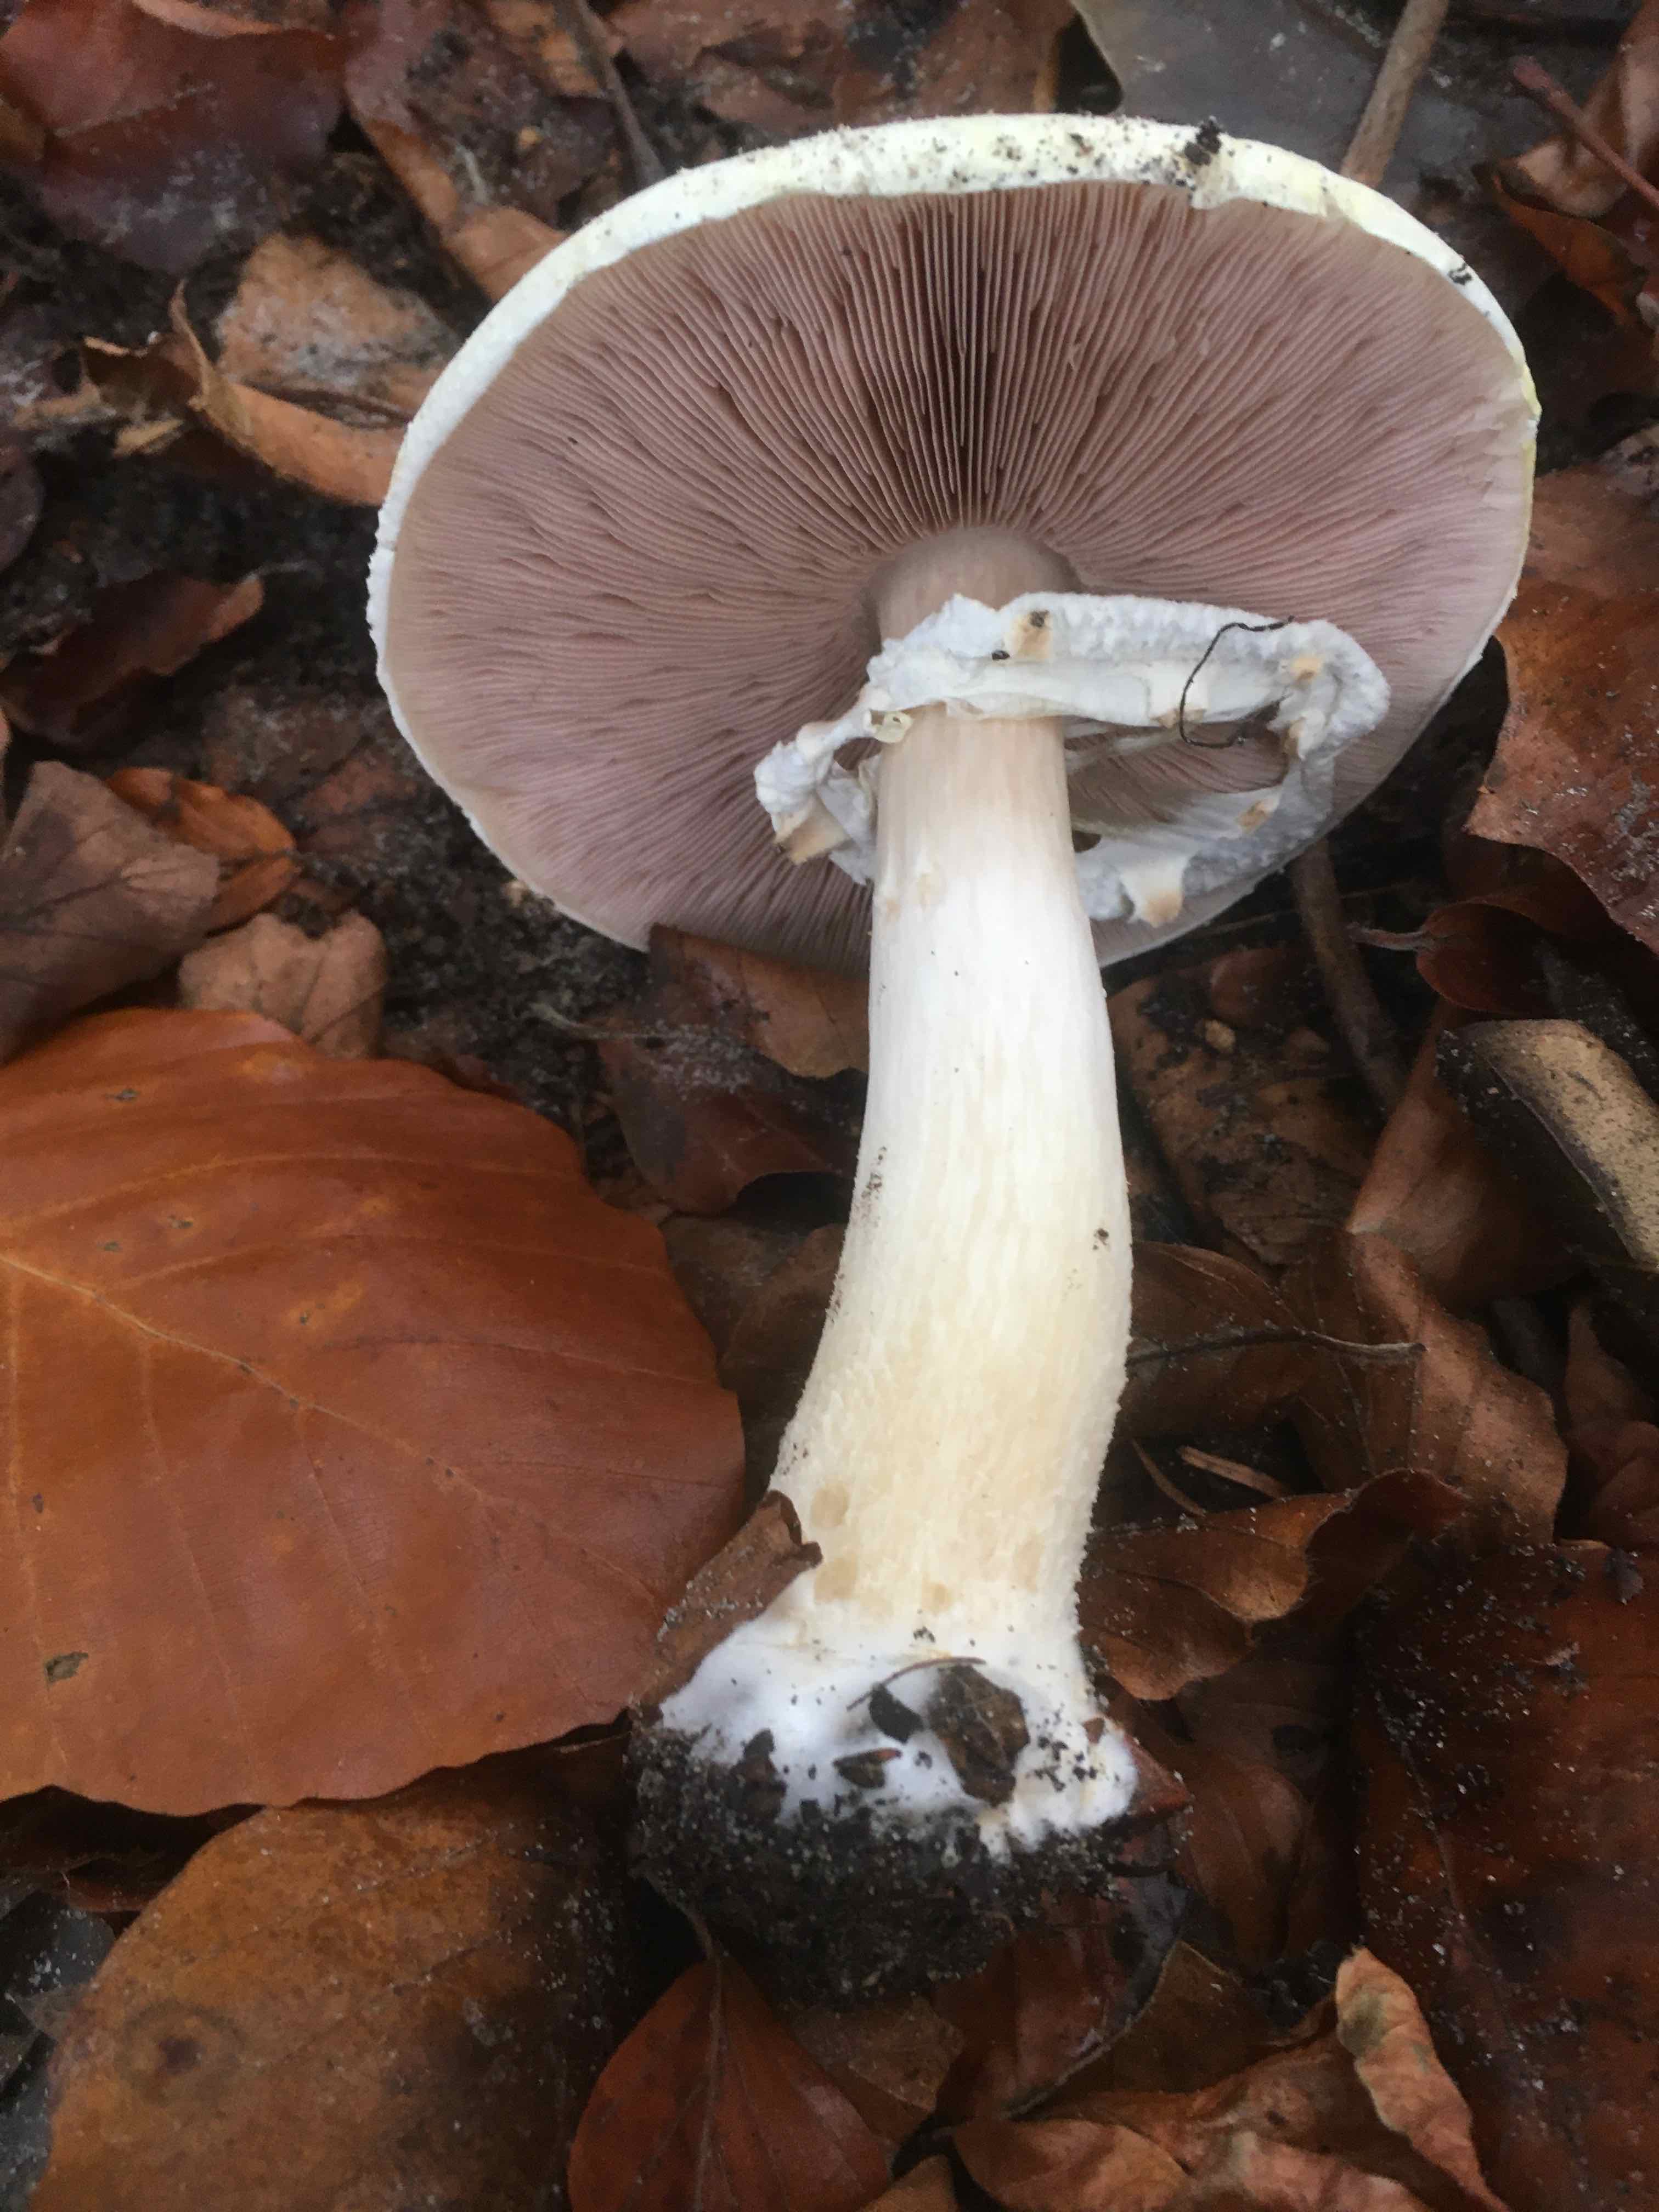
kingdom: Fungi
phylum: Basidiomycota
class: Agaricomycetes
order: Agaricales
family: Agaricaceae
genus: Agaricus
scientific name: Agaricus
